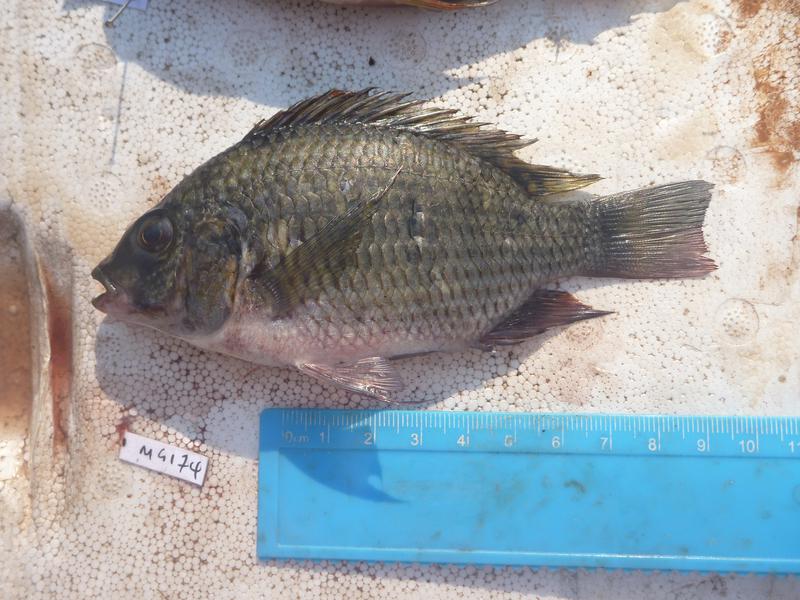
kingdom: Animalia
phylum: Chordata
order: Perciformes
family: Cichlidae
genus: Coptodon
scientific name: Coptodon rendalli
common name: Redbreast tilapia
